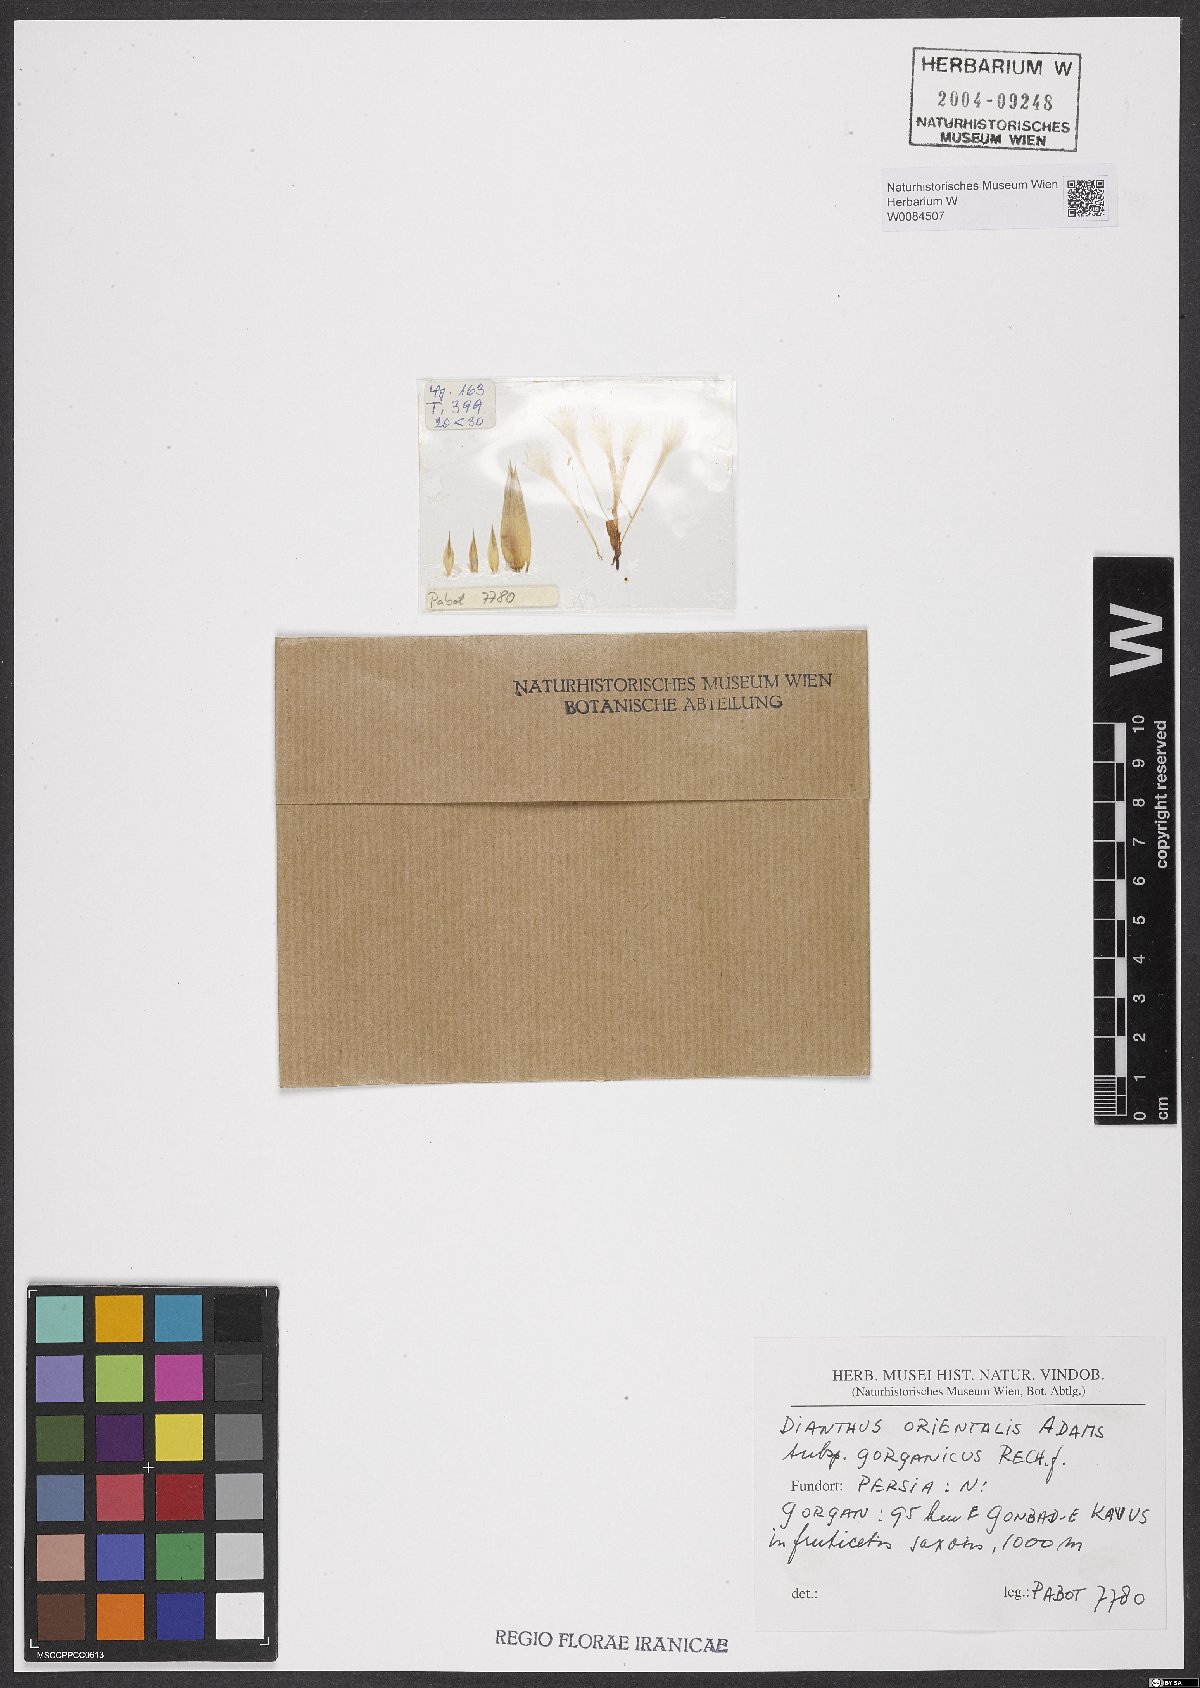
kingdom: Plantae
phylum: Tracheophyta
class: Magnoliopsida
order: Caryophyllales
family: Caryophyllaceae
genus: Dianthus
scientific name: Dianthus orientalis
